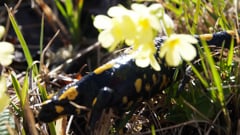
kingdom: Animalia
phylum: Chordata
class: Amphibia
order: Caudata
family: Salamandridae
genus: Salamandra
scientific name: Salamandra salamandra
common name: Fire salamander
